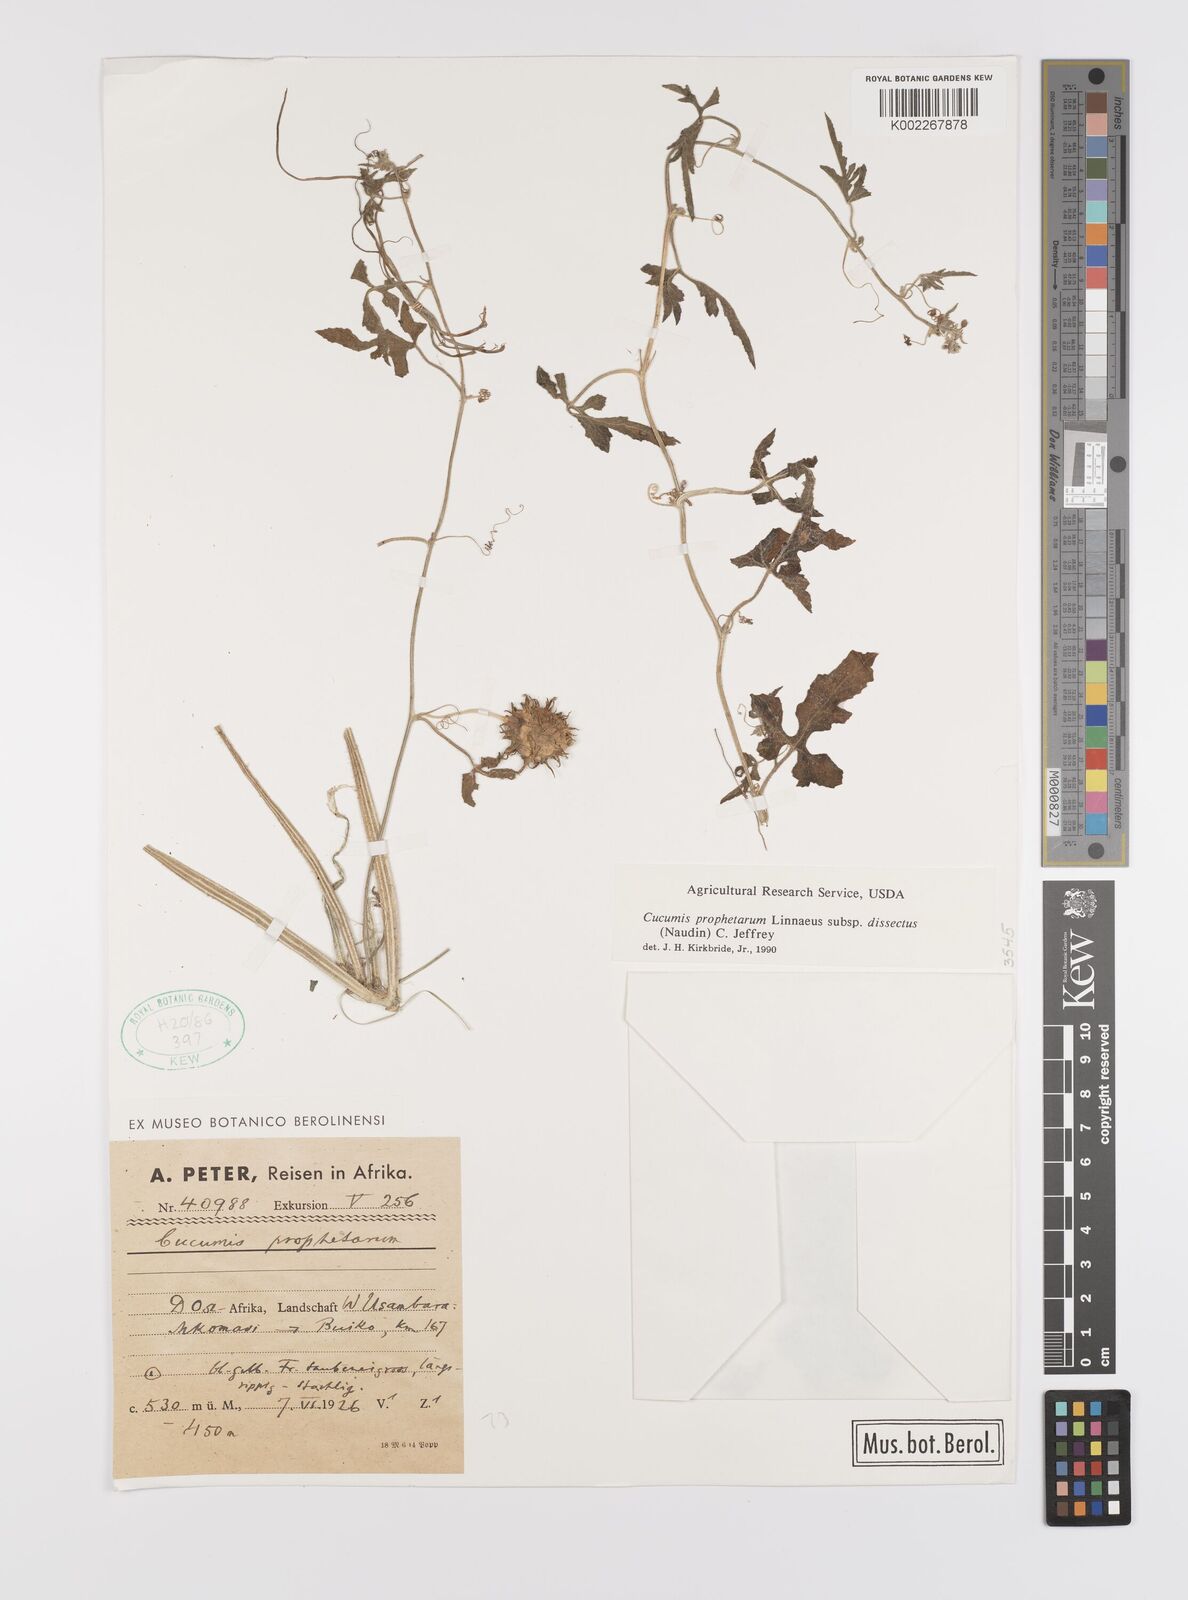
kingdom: Plantae
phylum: Tracheophyta
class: Magnoliopsida
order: Cucurbitales
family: Cucurbitaceae
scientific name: Cucurbitaceae
